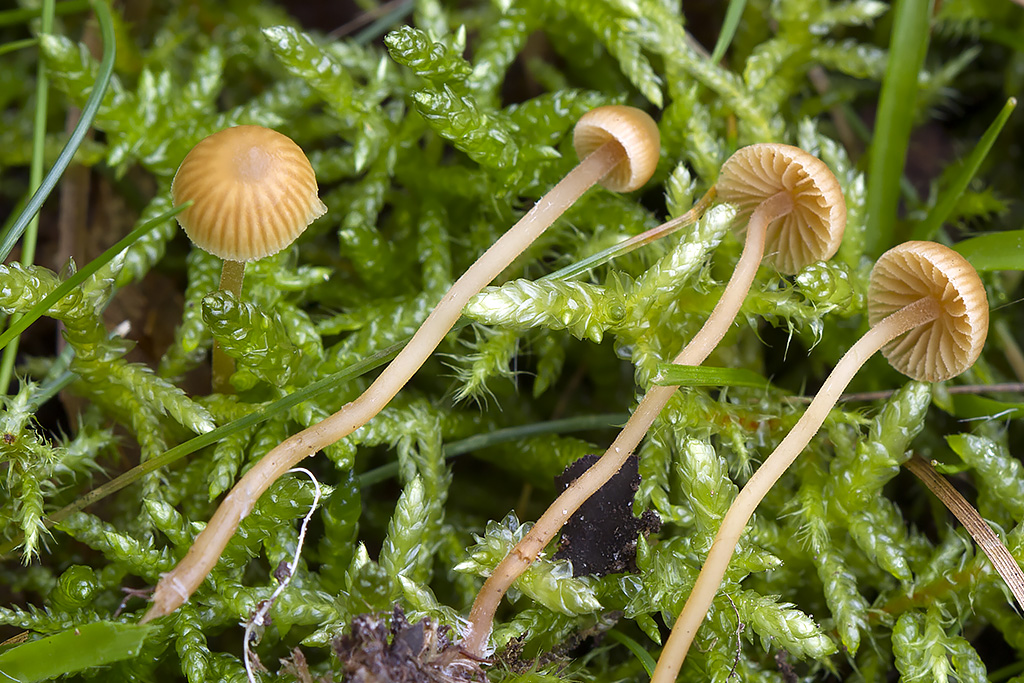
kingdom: Fungi
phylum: Basidiomycota
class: Agaricomycetes
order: Agaricales
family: Hymenogastraceae
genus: Galerina
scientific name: Galerina vittiformis
